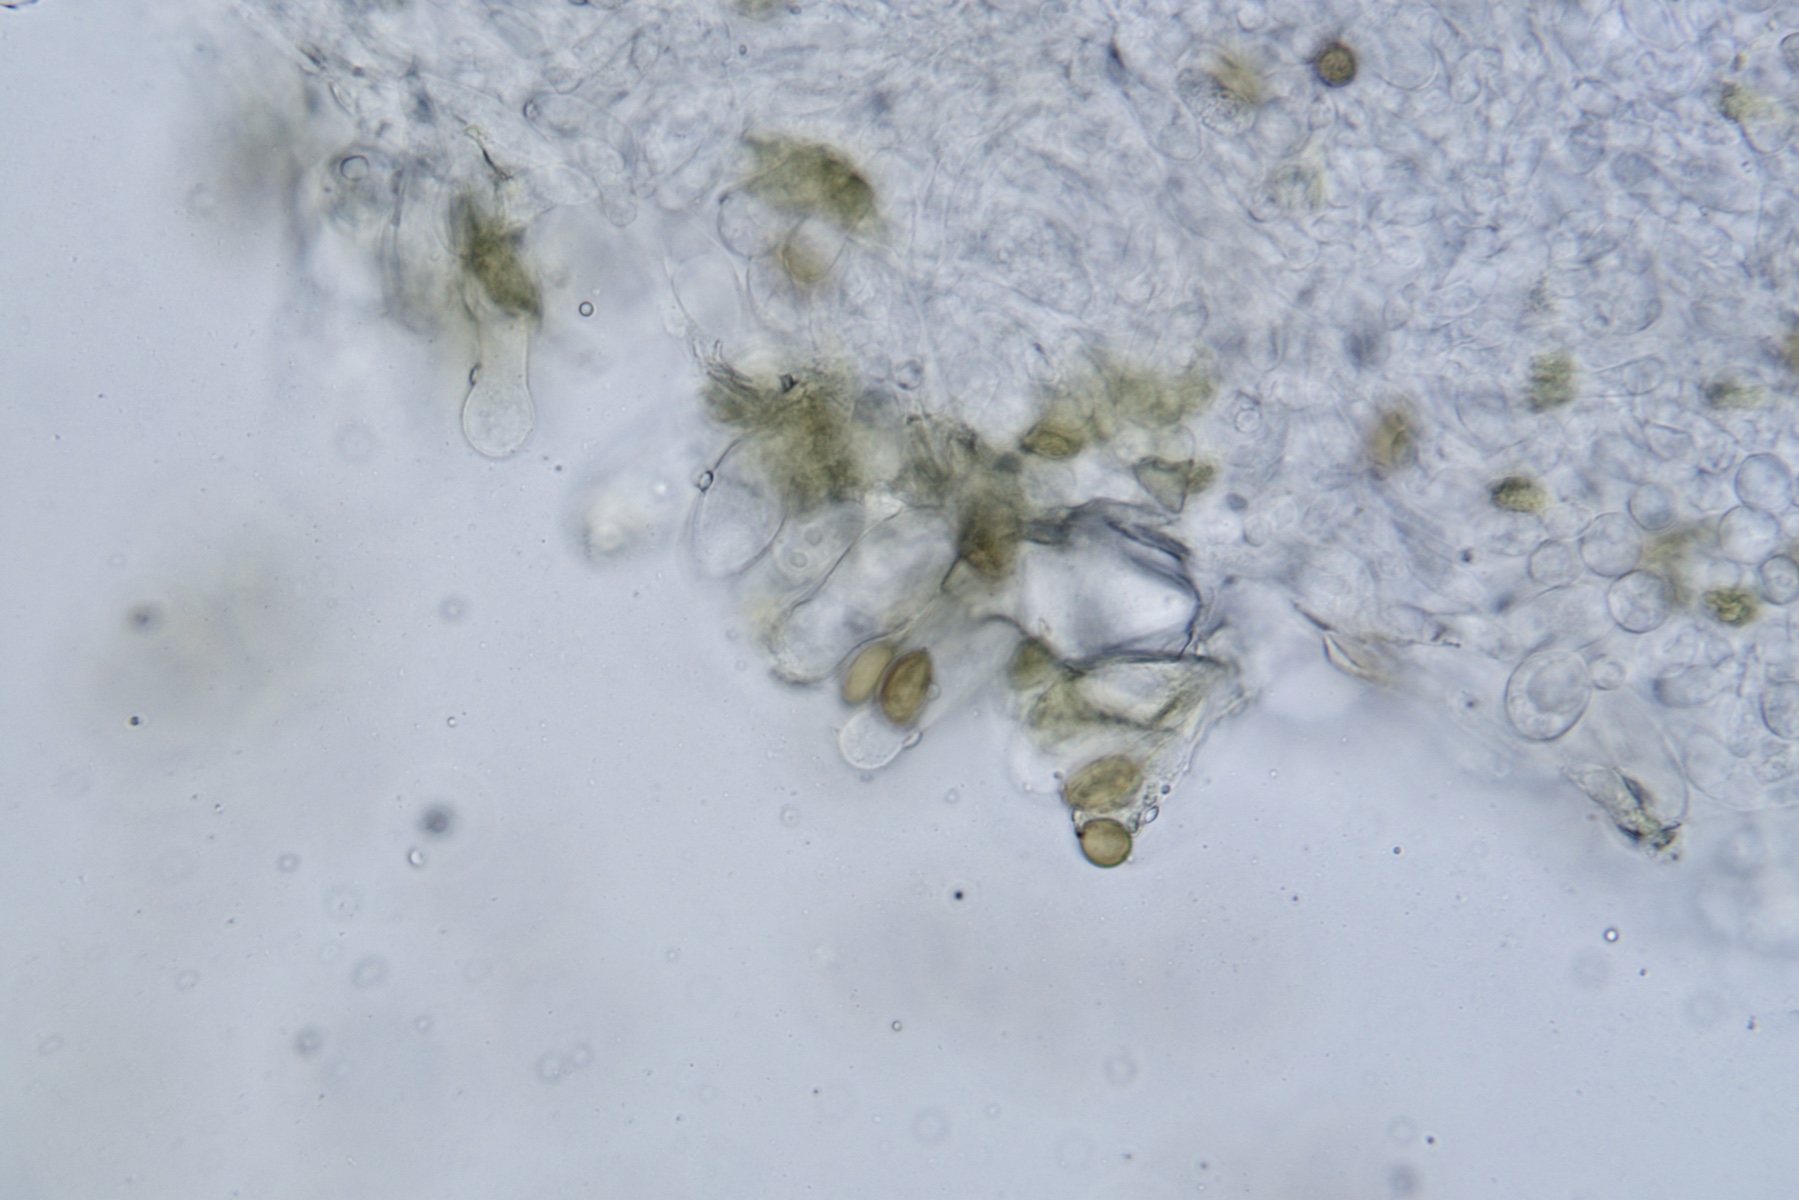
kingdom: Fungi
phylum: Basidiomycota
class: Agaricomycetes
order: Agaricales
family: Strophariaceae
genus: Agrocybe
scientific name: Agrocybe dura
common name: fastkødet agerhat
